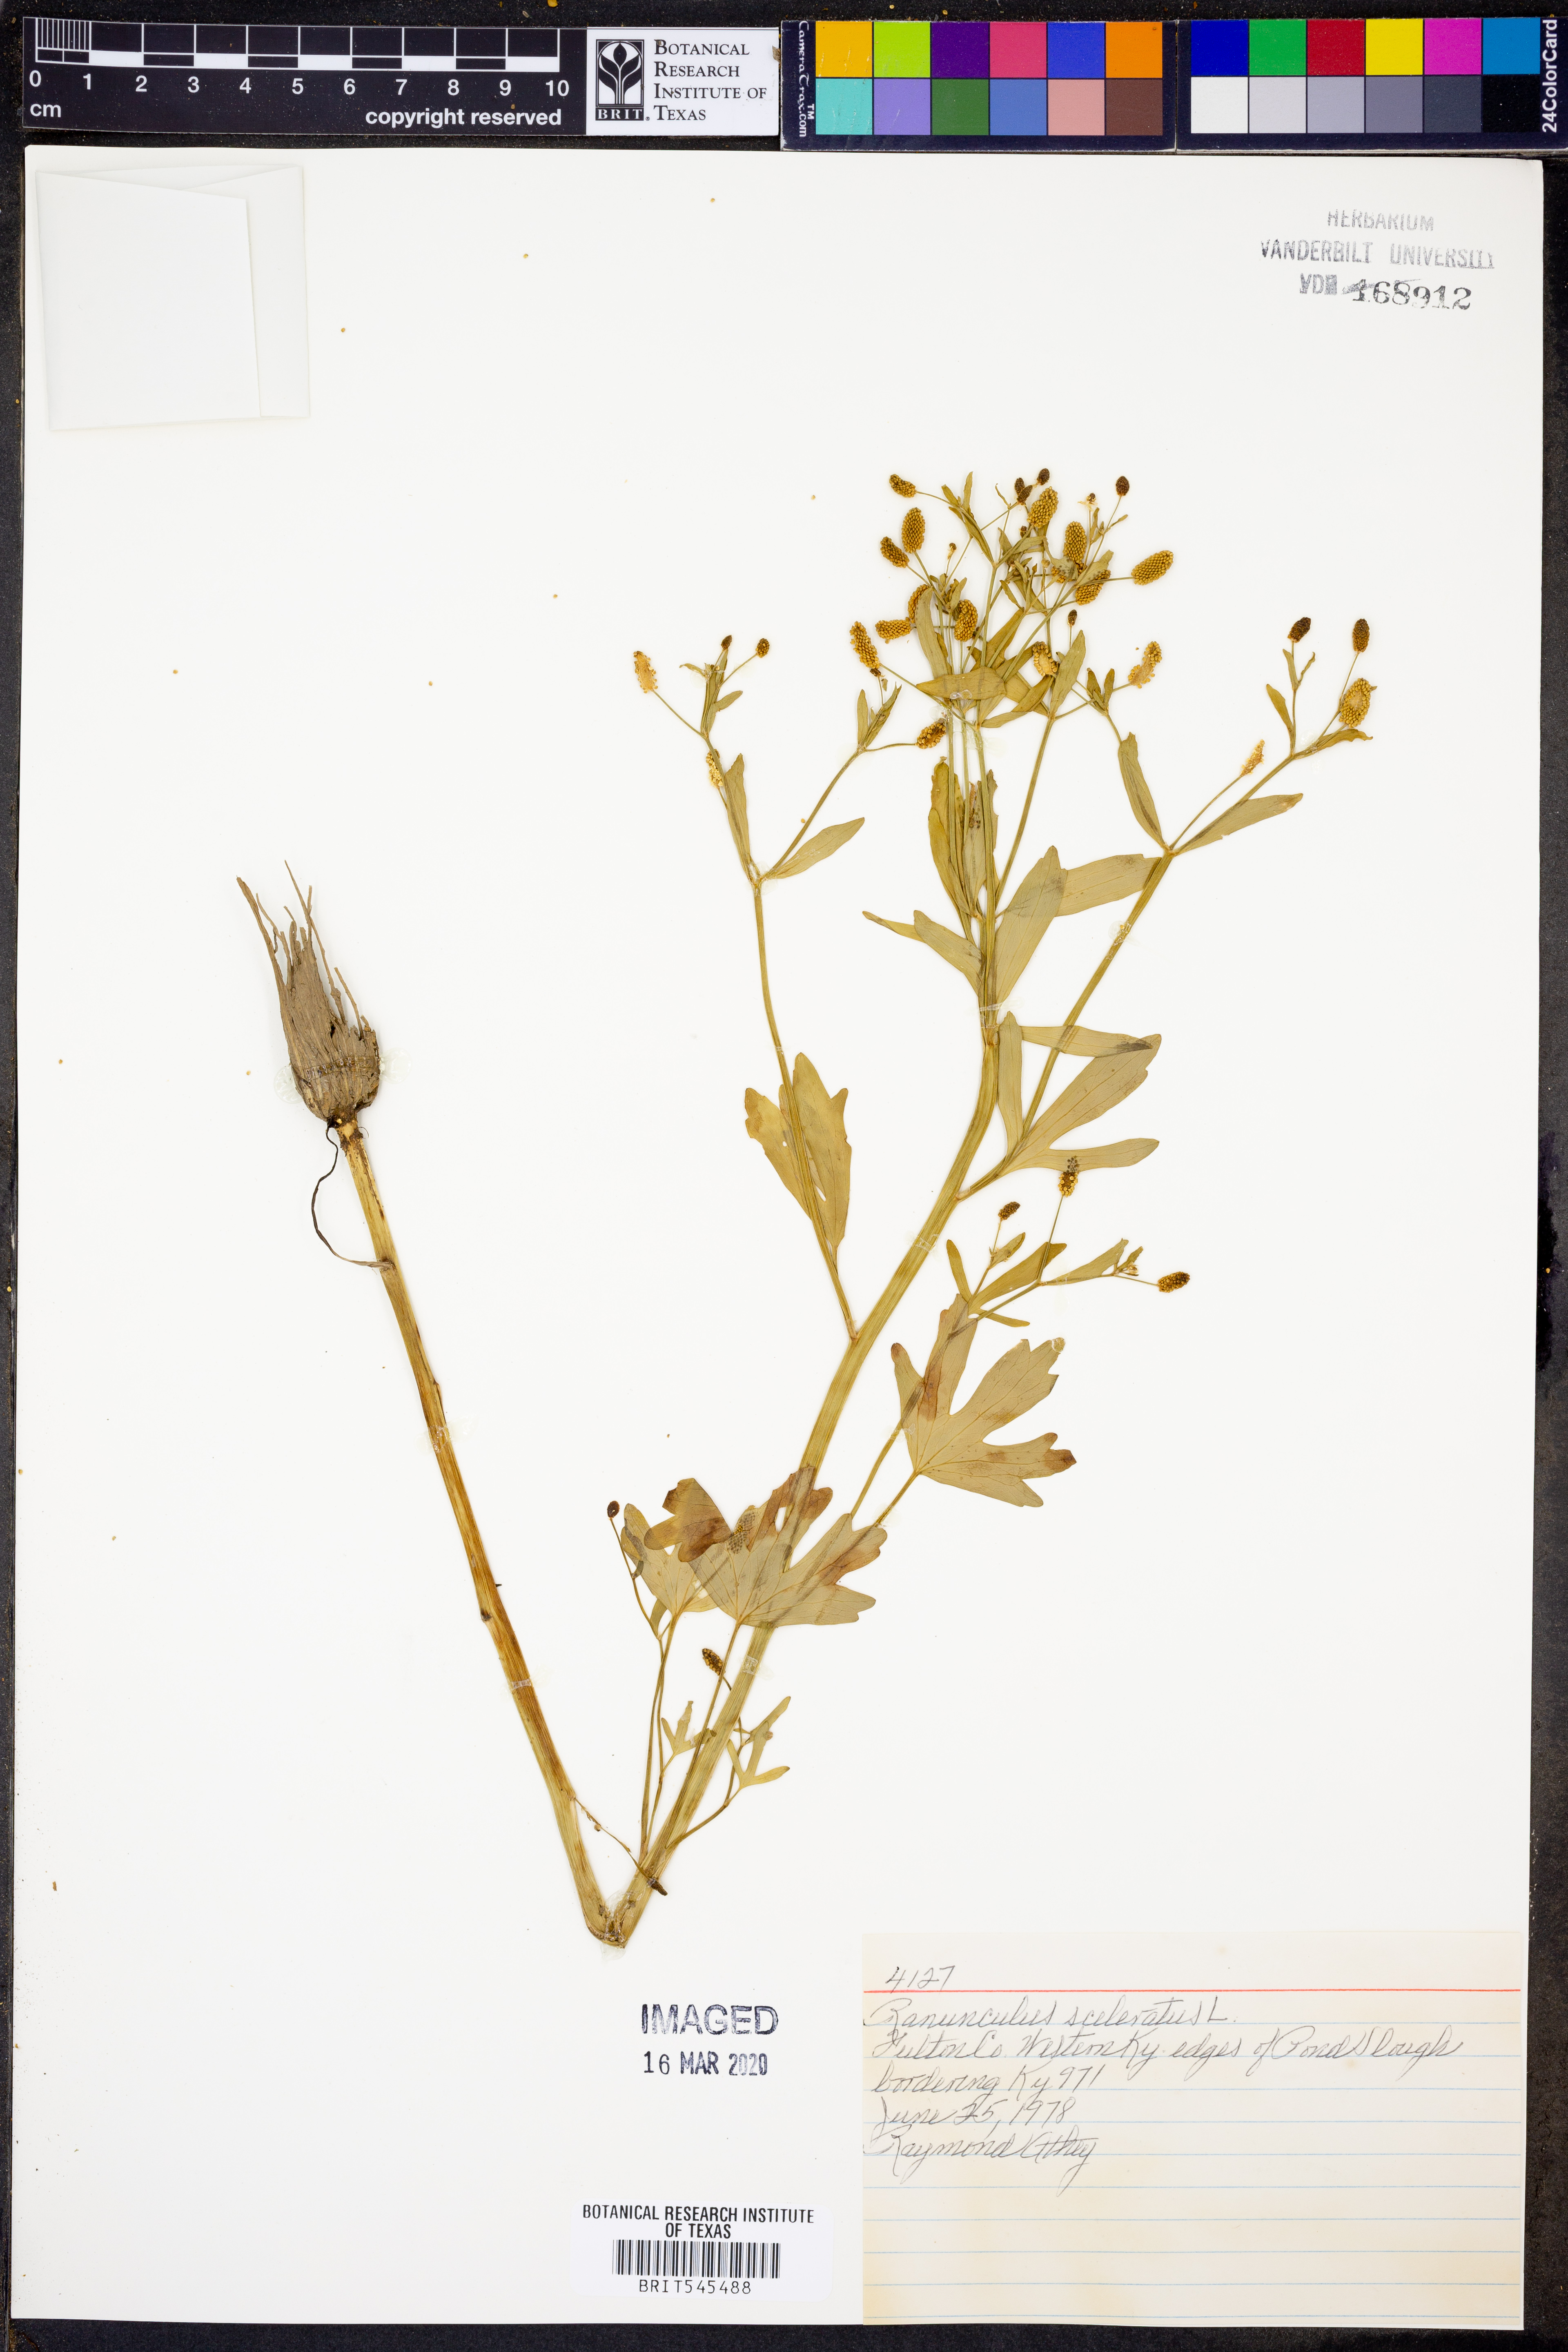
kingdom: Plantae
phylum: Tracheophyta
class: Magnoliopsida
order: Ranunculales
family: Ranunculaceae
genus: Ranunculus
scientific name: Ranunculus sceleratus
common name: Celery-leaved buttercup
